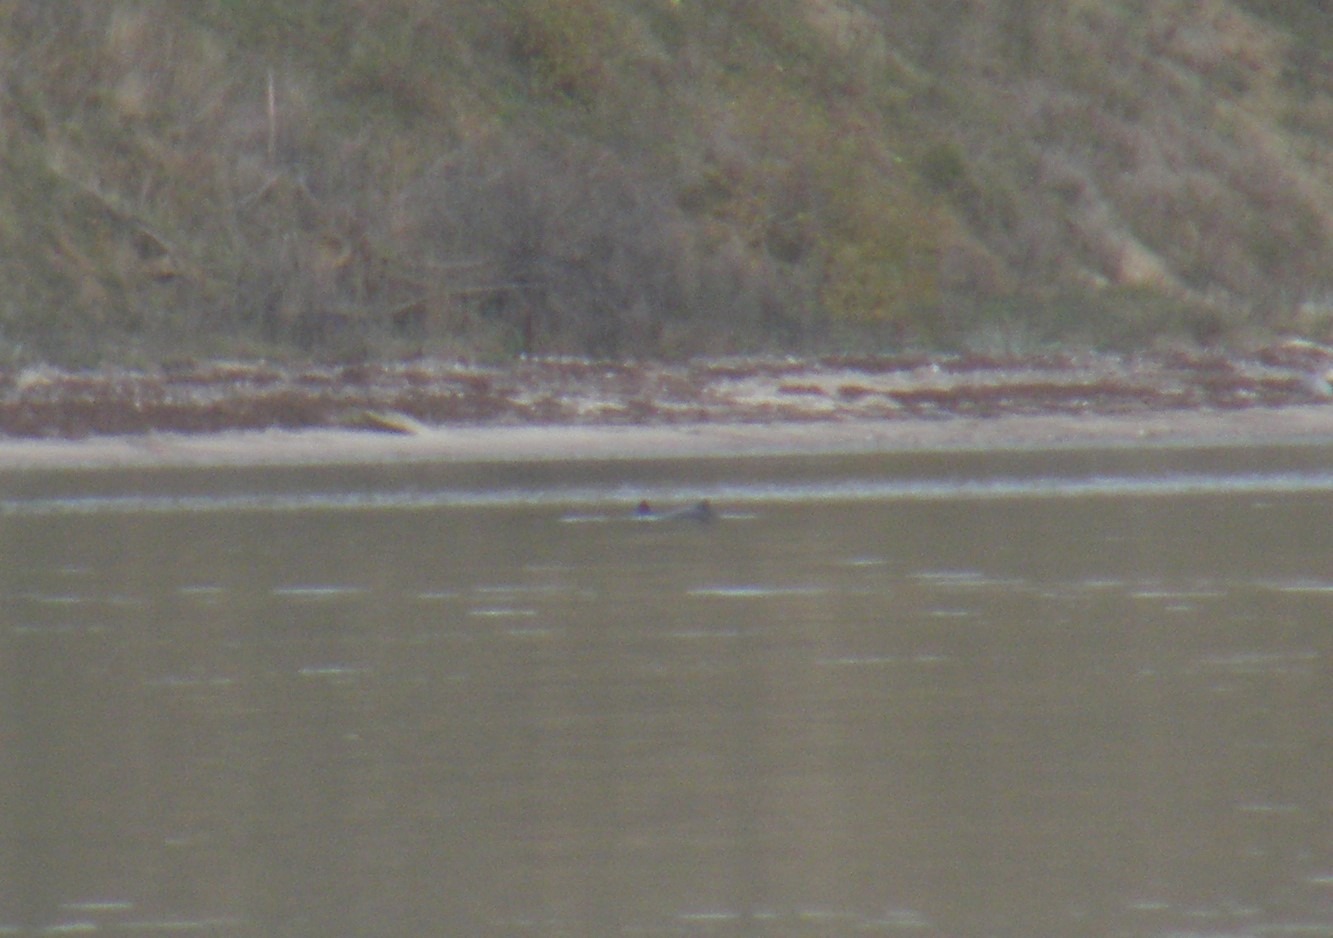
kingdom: Animalia
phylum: Chordata
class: Mammalia
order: Cetacea
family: Phocoenidae
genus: Phocoena
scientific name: Phocoena phocoena
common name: Marsvin
